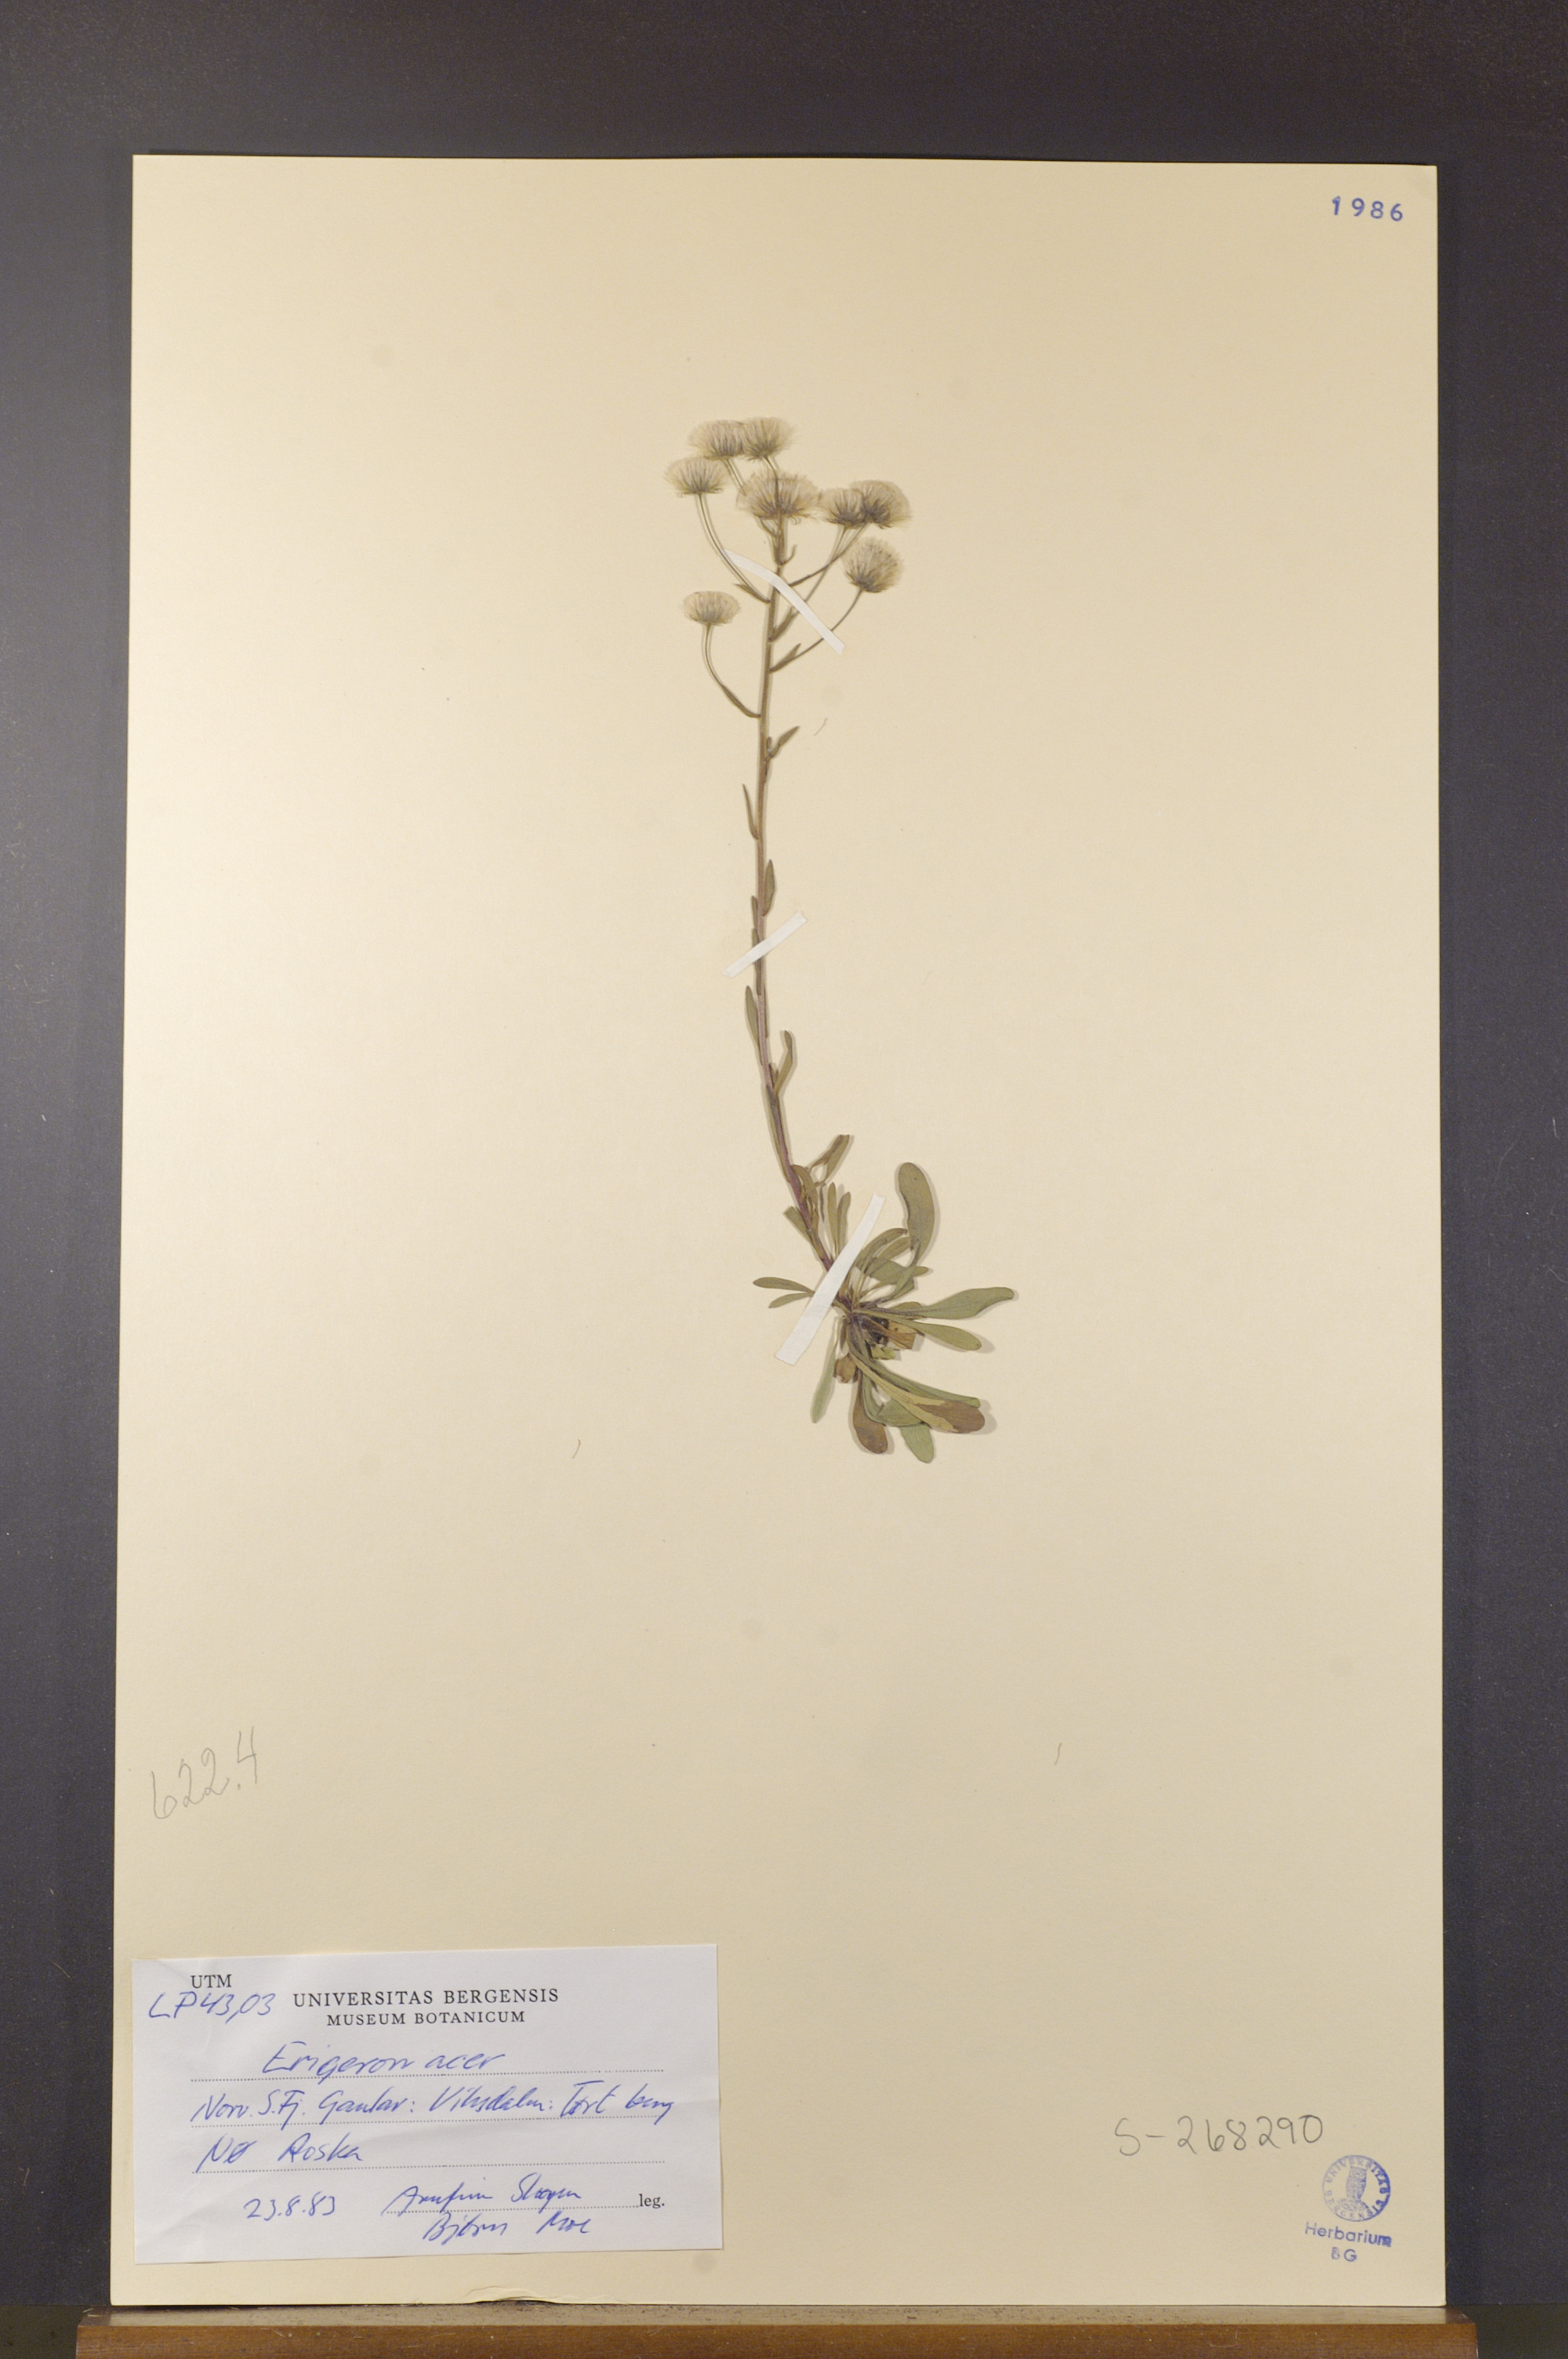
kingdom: Plantae
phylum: Tracheophyta
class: Magnoliopsida
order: Asterales
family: Asteraceae
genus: Erigeron
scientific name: Erigeron acris
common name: Blue fleabane
